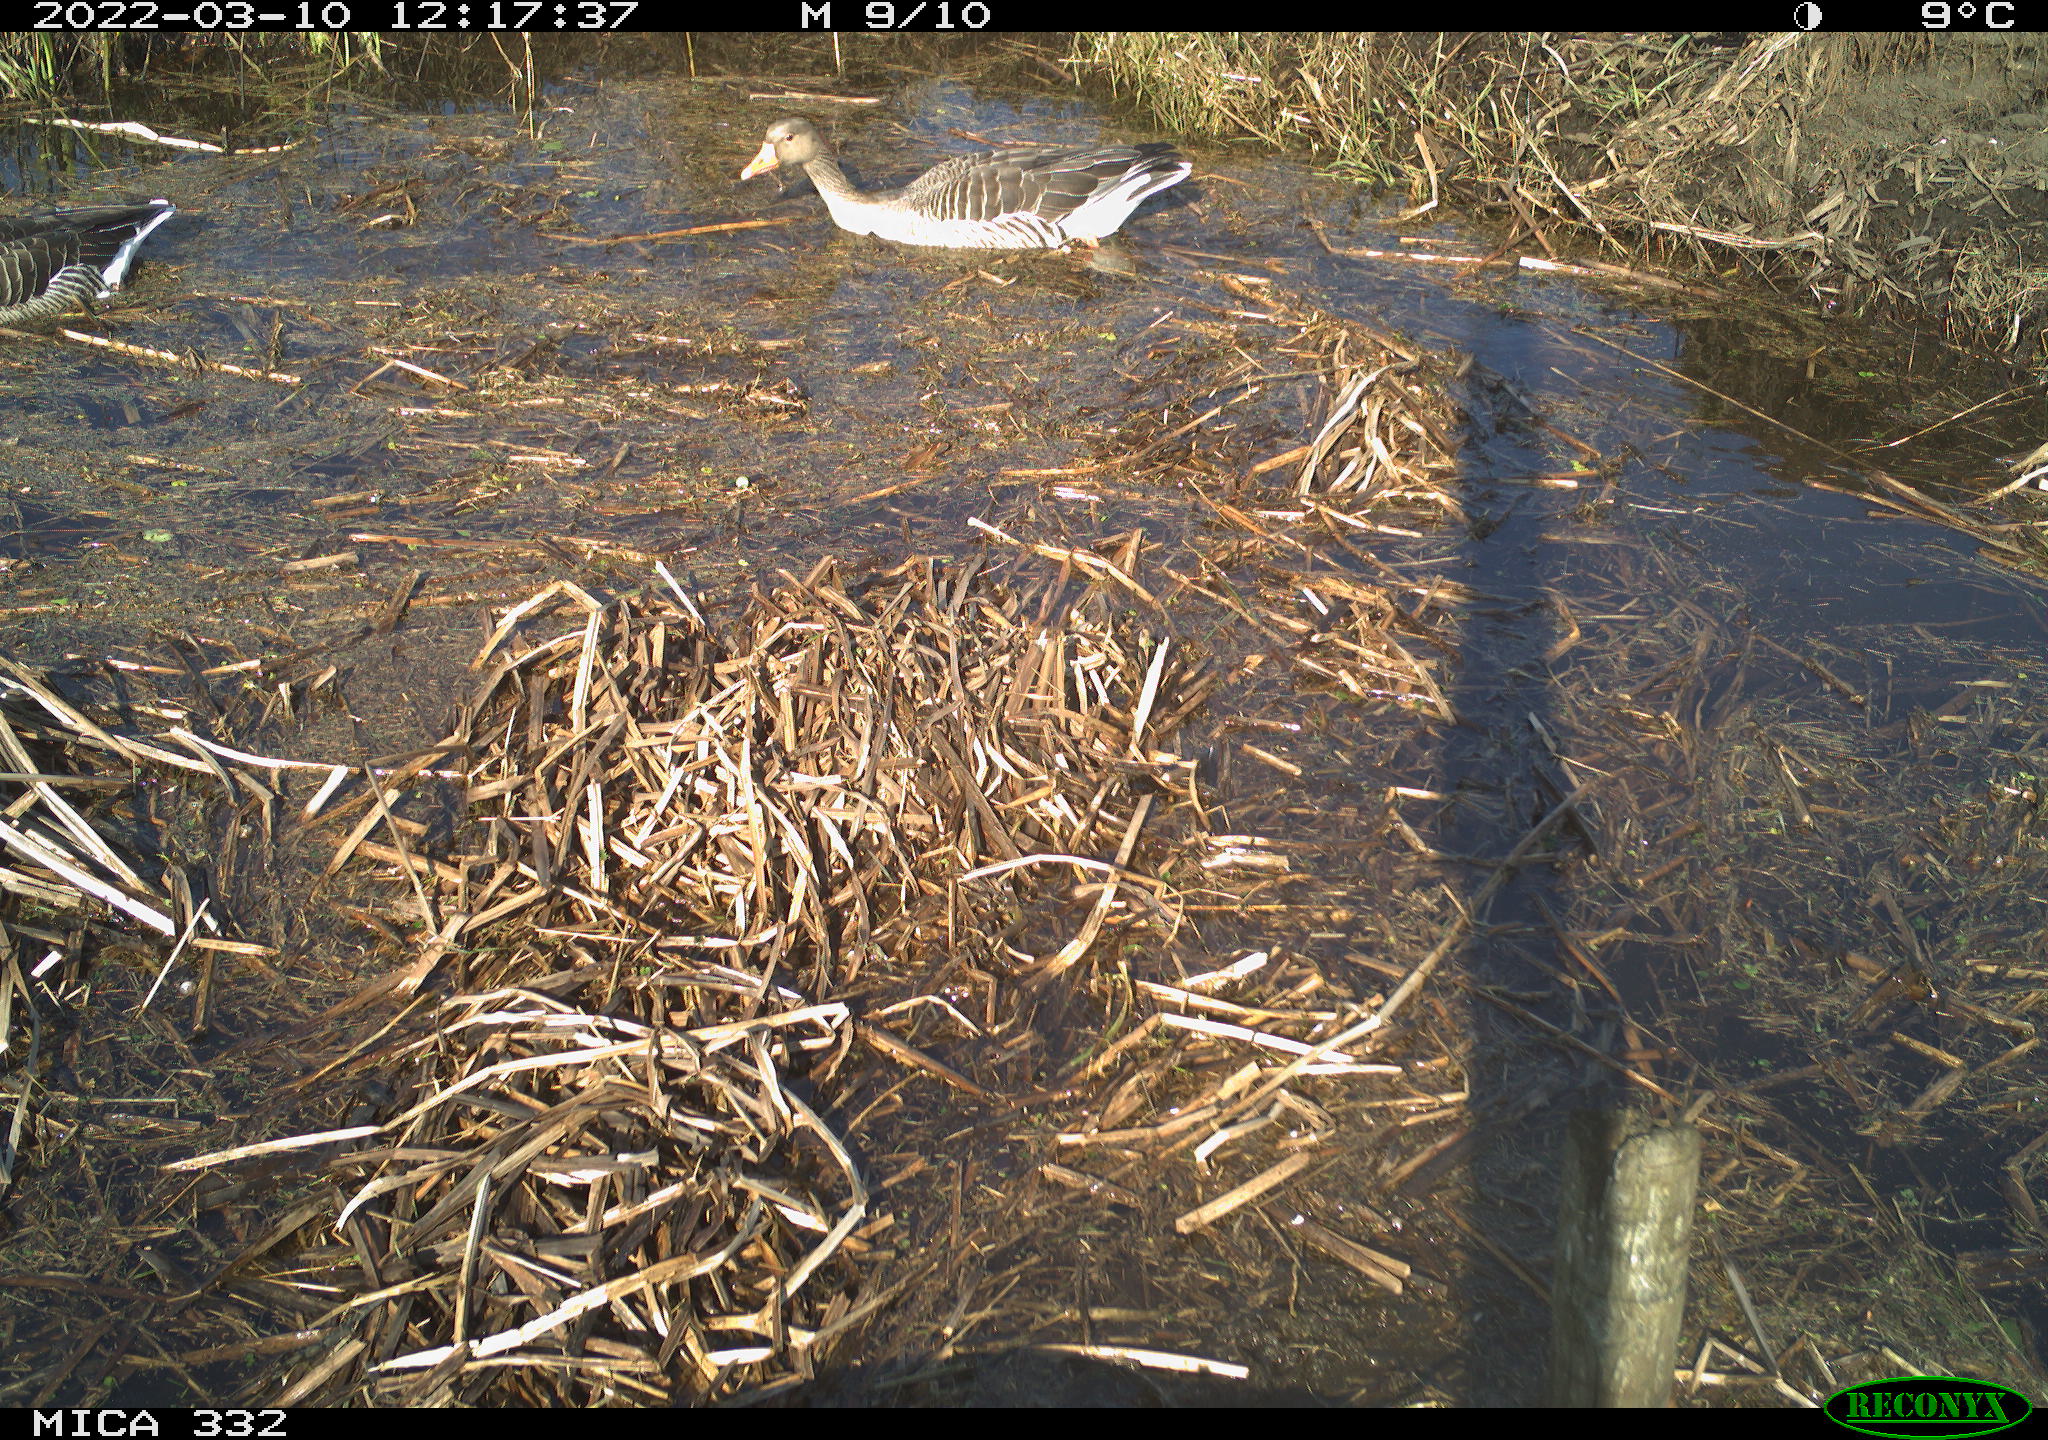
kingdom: Animalia
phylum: Chordata
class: Aves
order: Anseriformes
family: Anatidae
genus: Anser
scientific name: Anser anser
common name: Greylag goose
